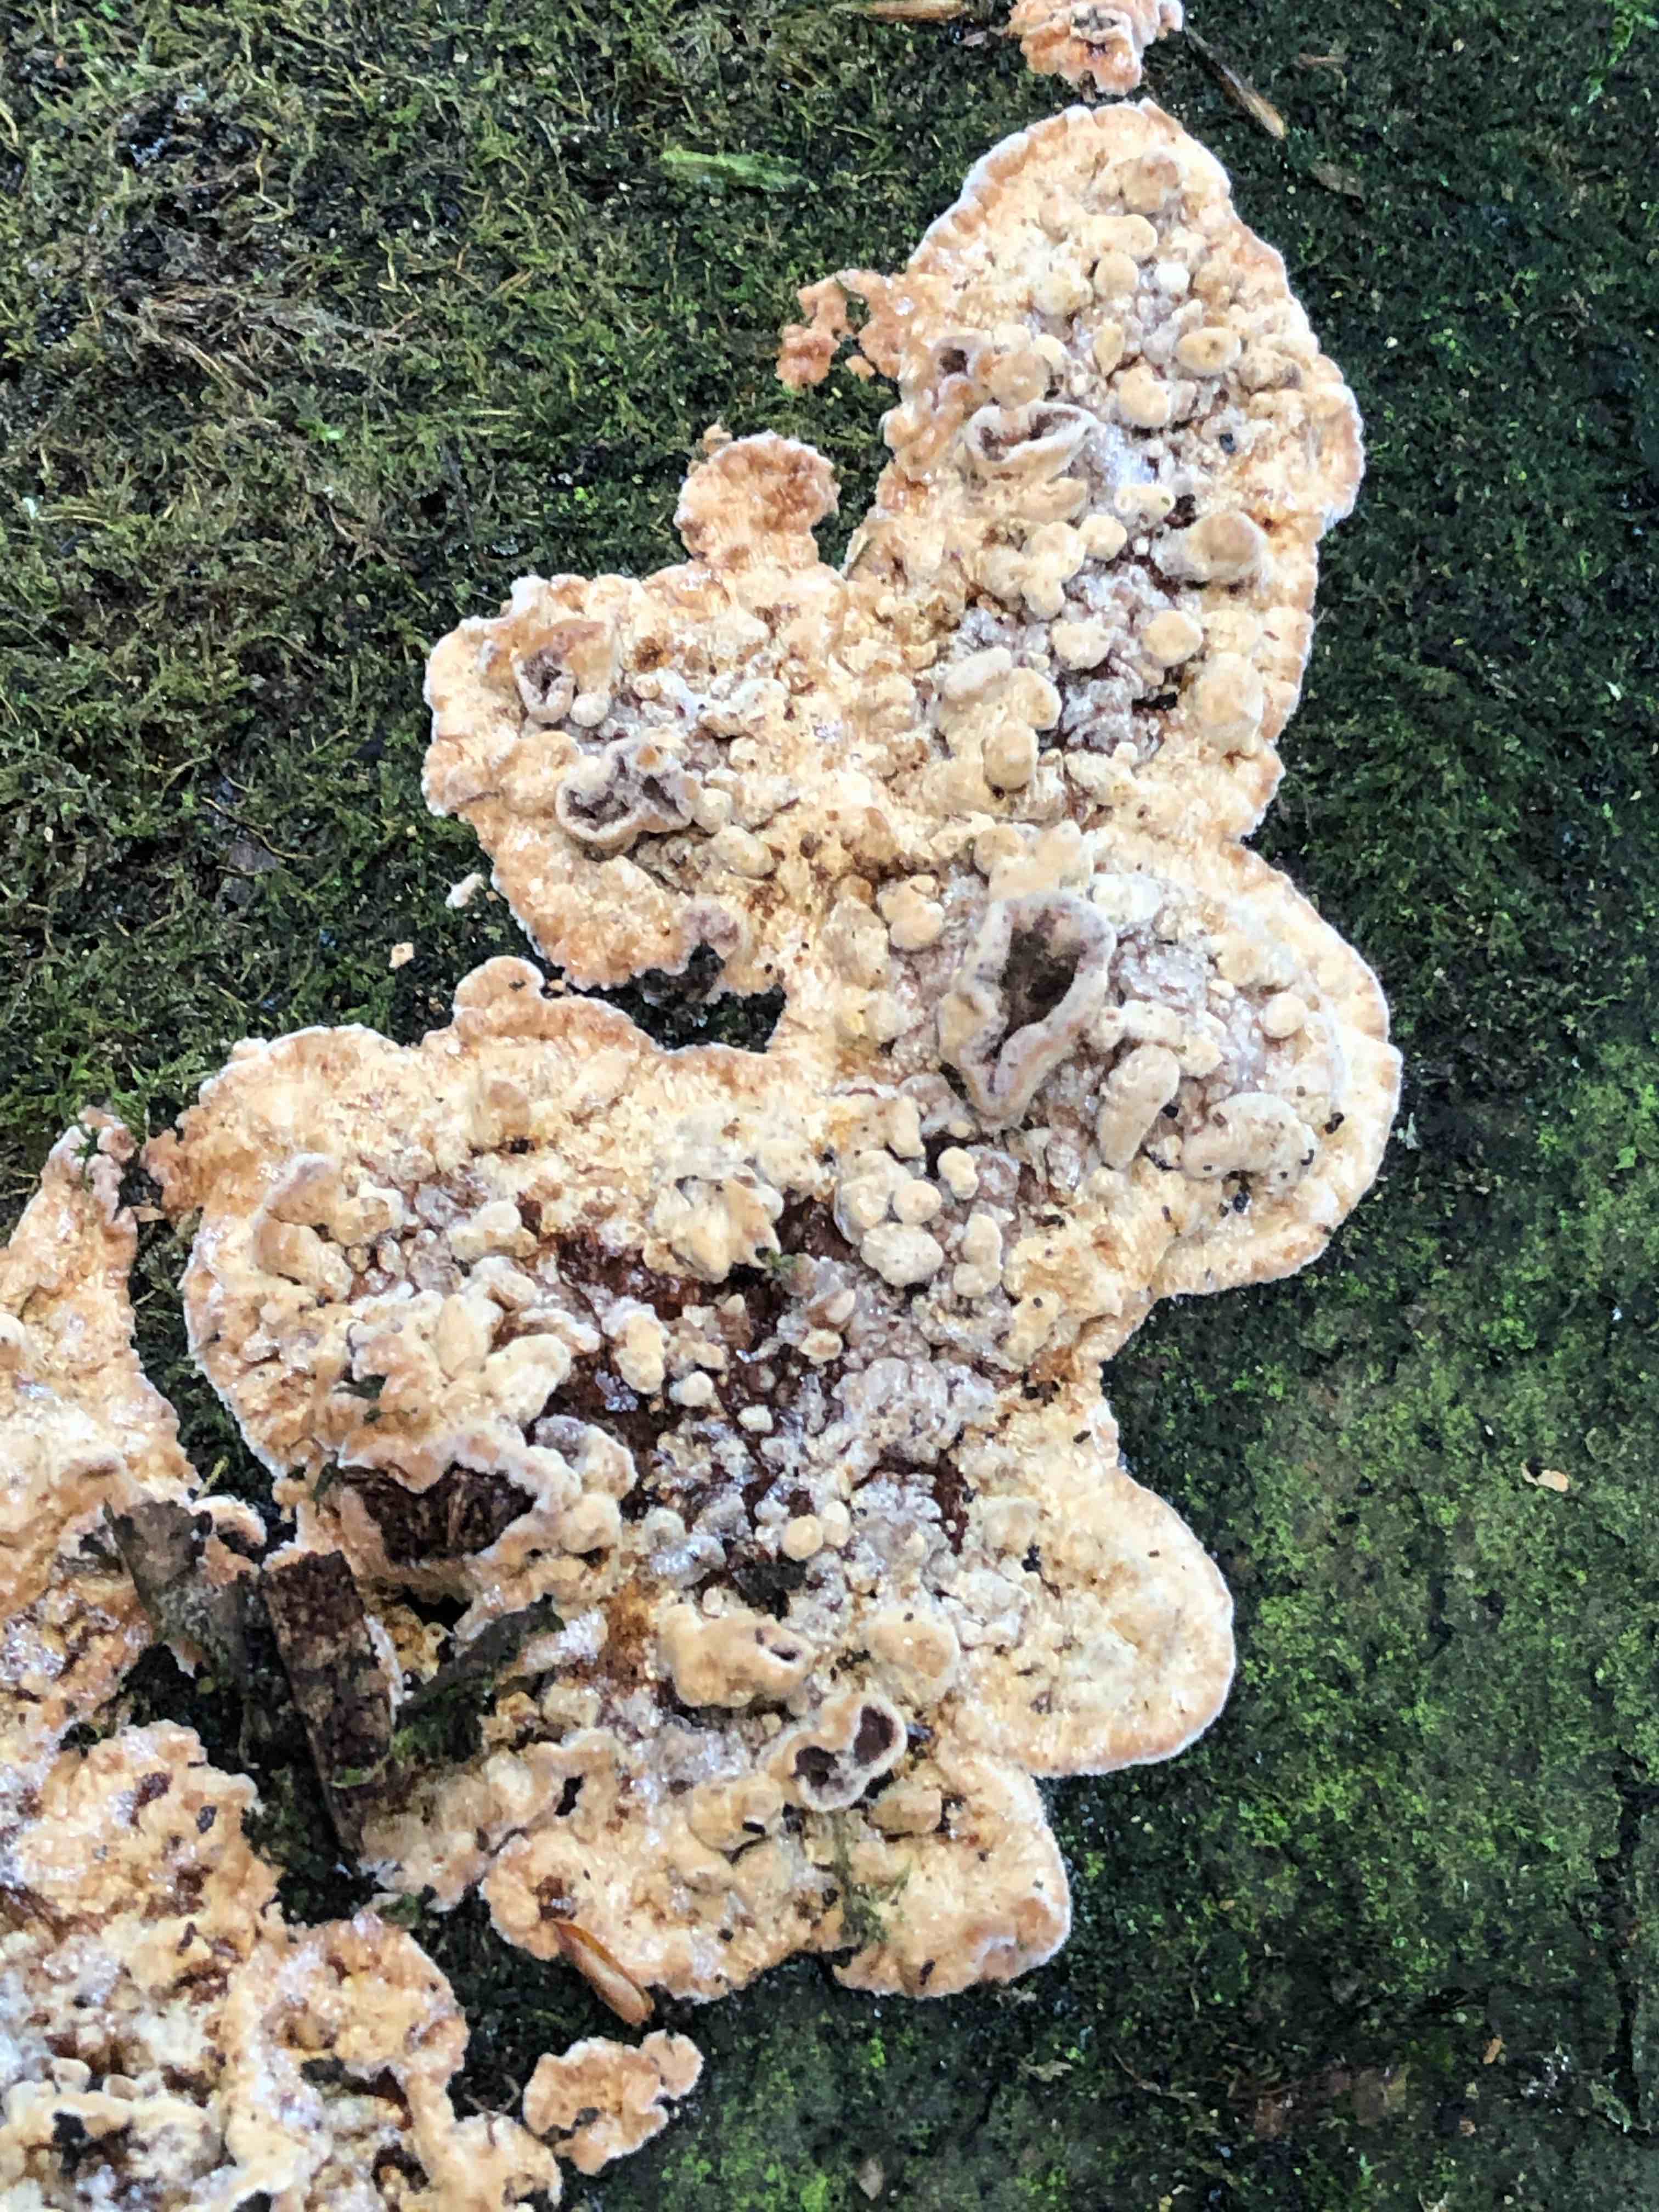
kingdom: Fungi
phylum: Basidiomycota
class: Agaricomycetes
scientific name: Agaricomycetes
